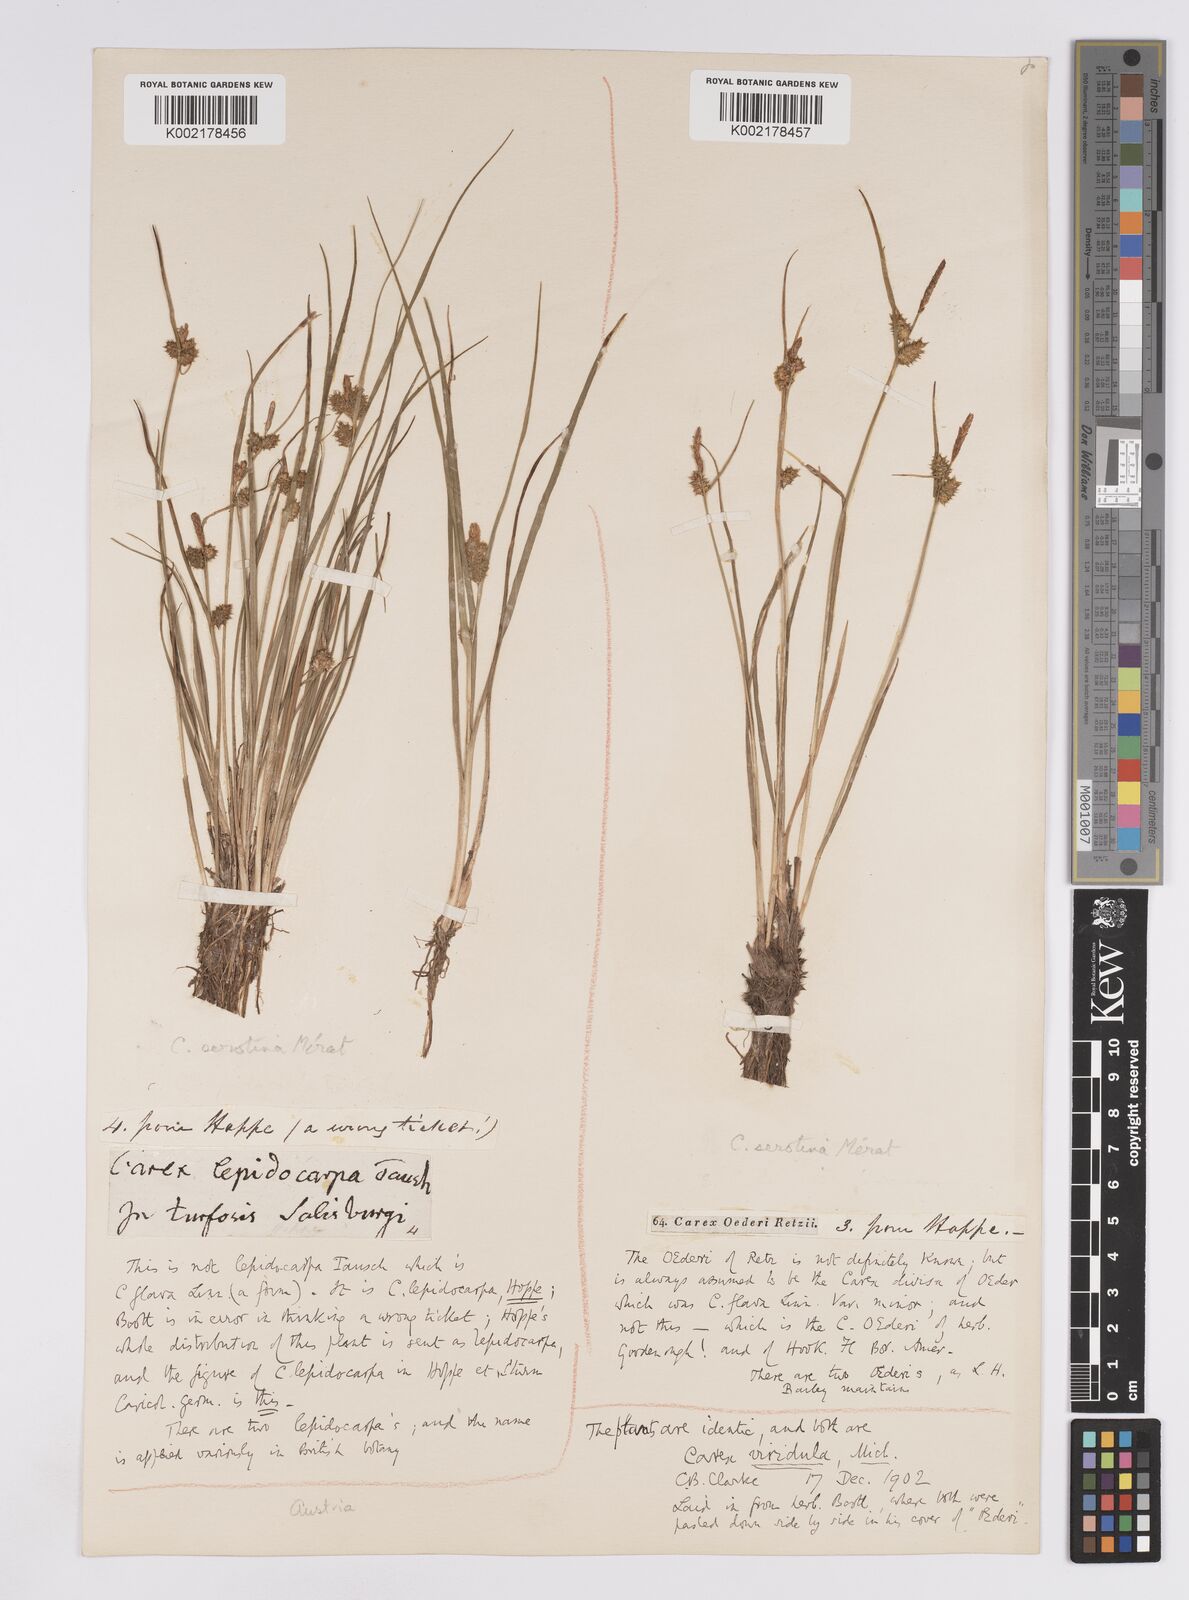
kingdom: Plantae
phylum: Tracheophyta
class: Liliopsida
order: Poales
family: Cyperaceae
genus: Carex
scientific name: Carex demissa
